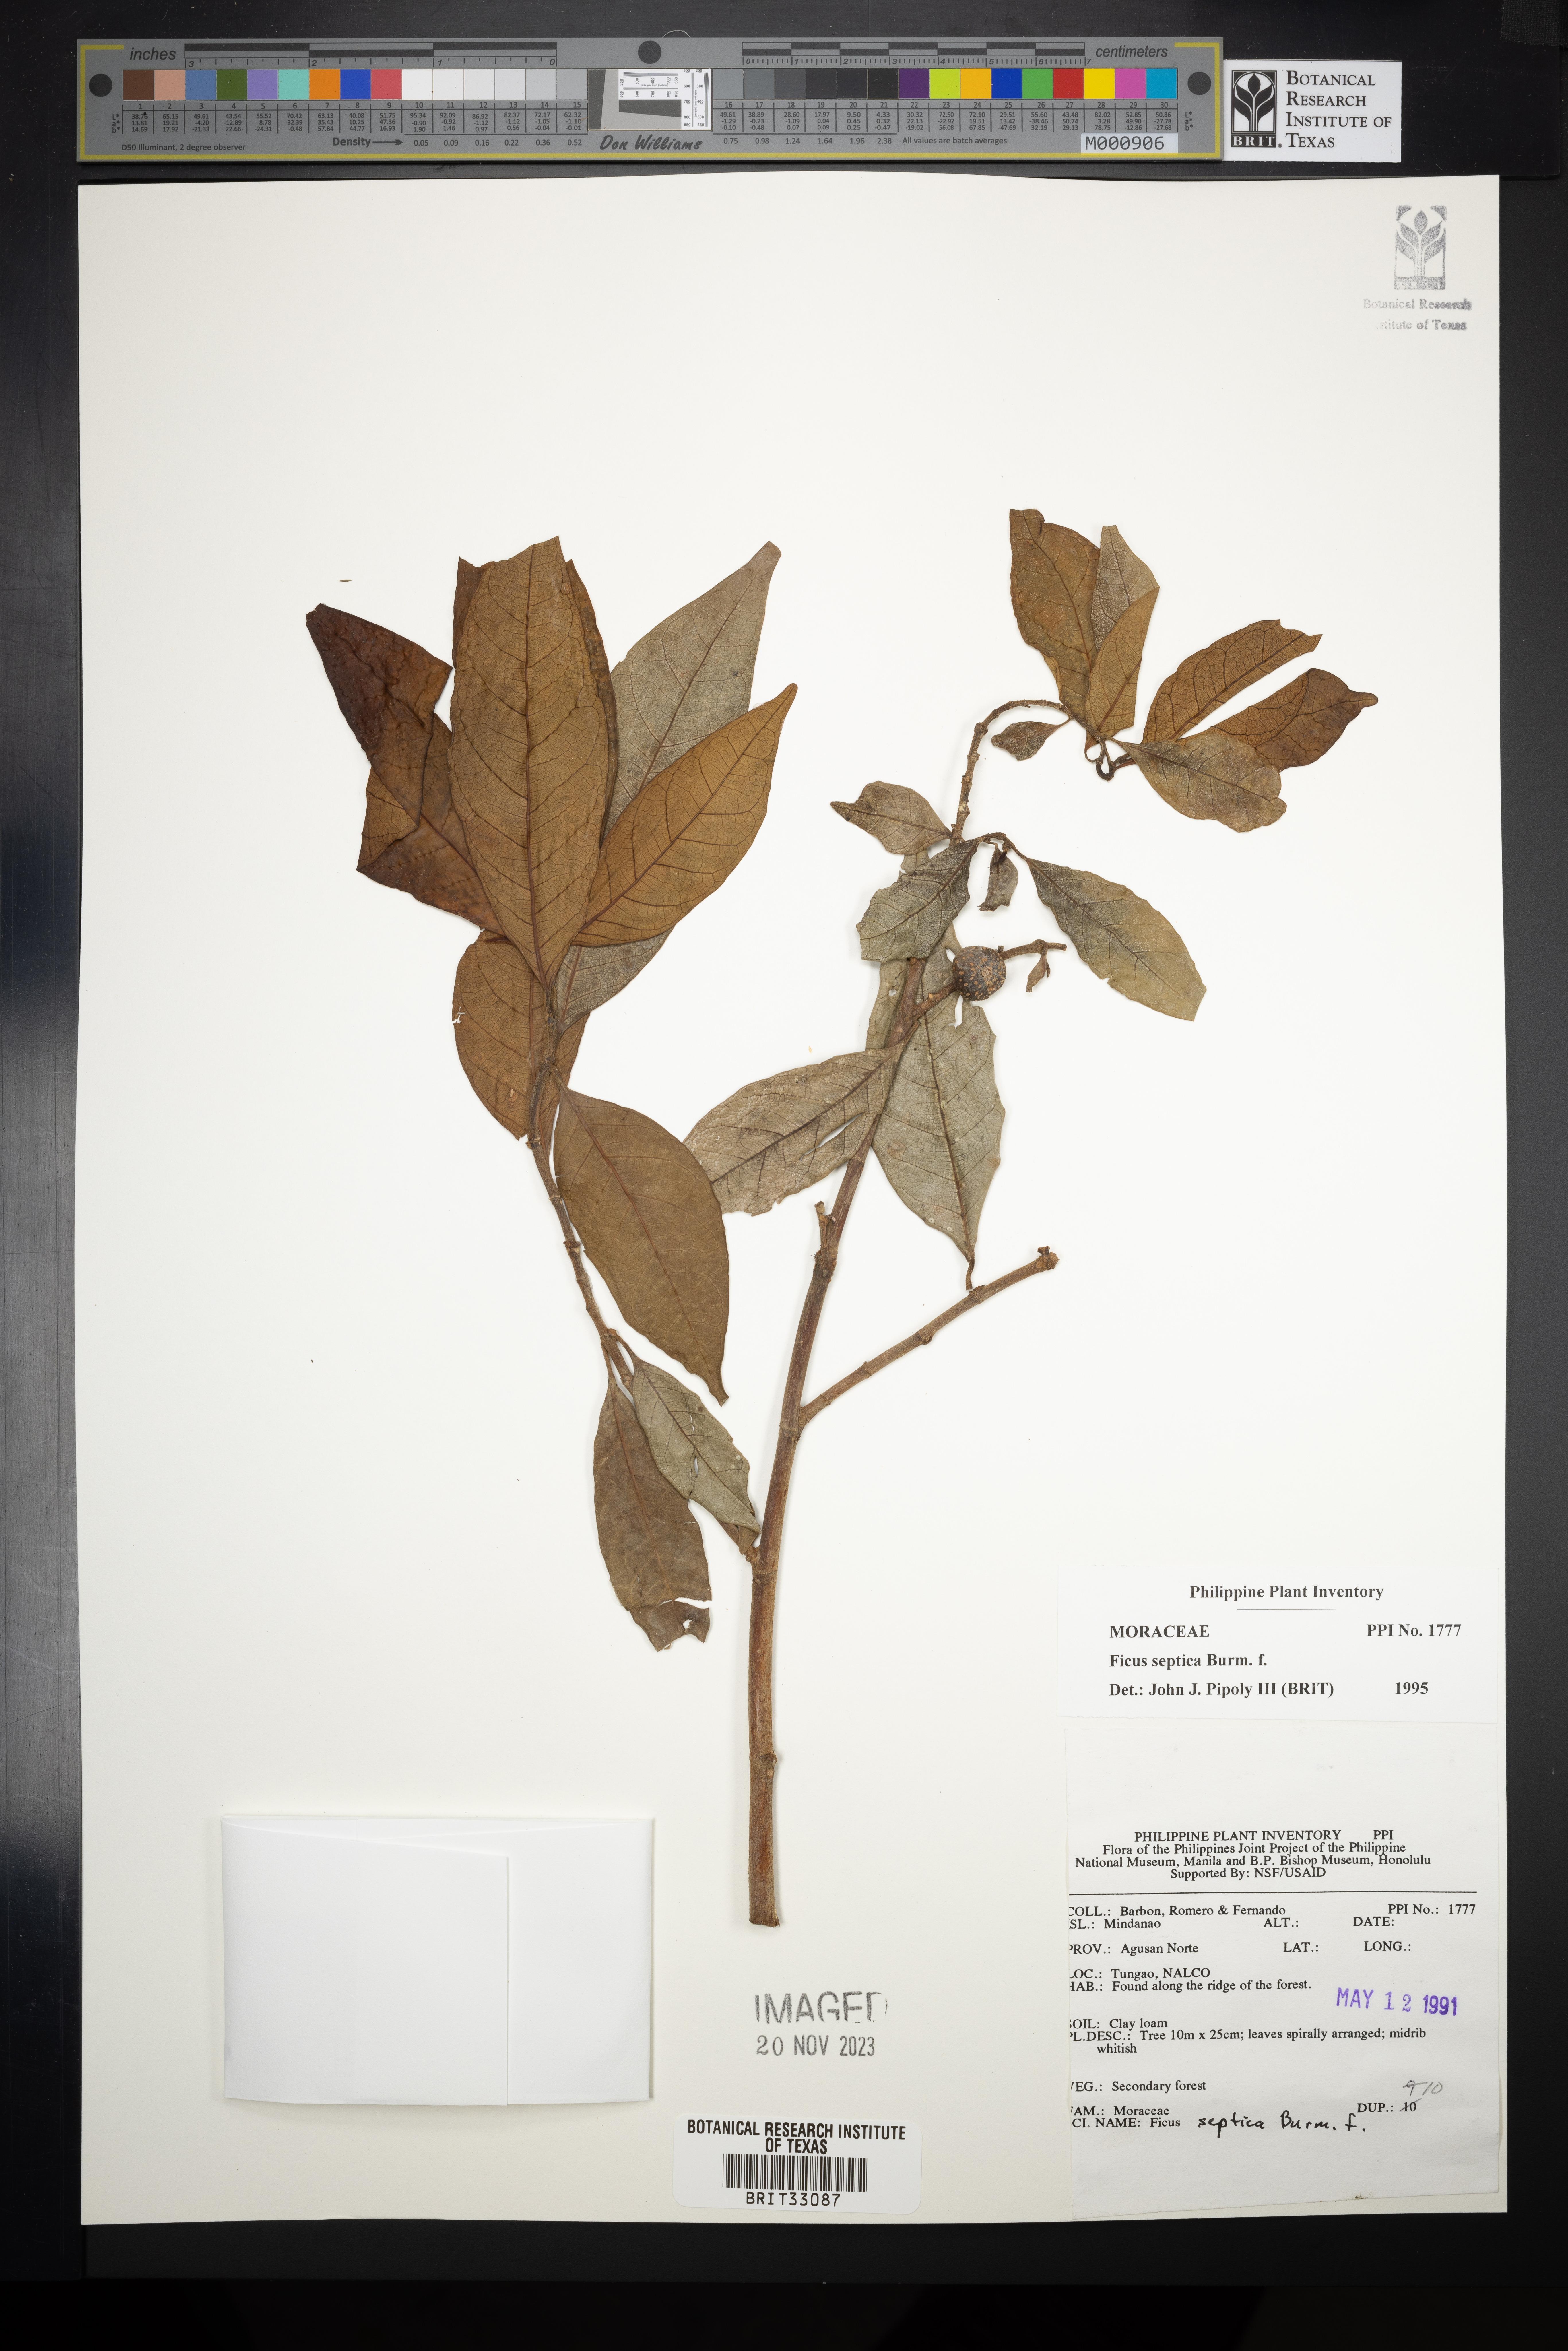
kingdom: Plantae
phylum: Tracheophyta
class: Magnoliopsida
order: Rosales
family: Moraceae
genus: Ficus
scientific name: Ficus septica
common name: Septic fig
